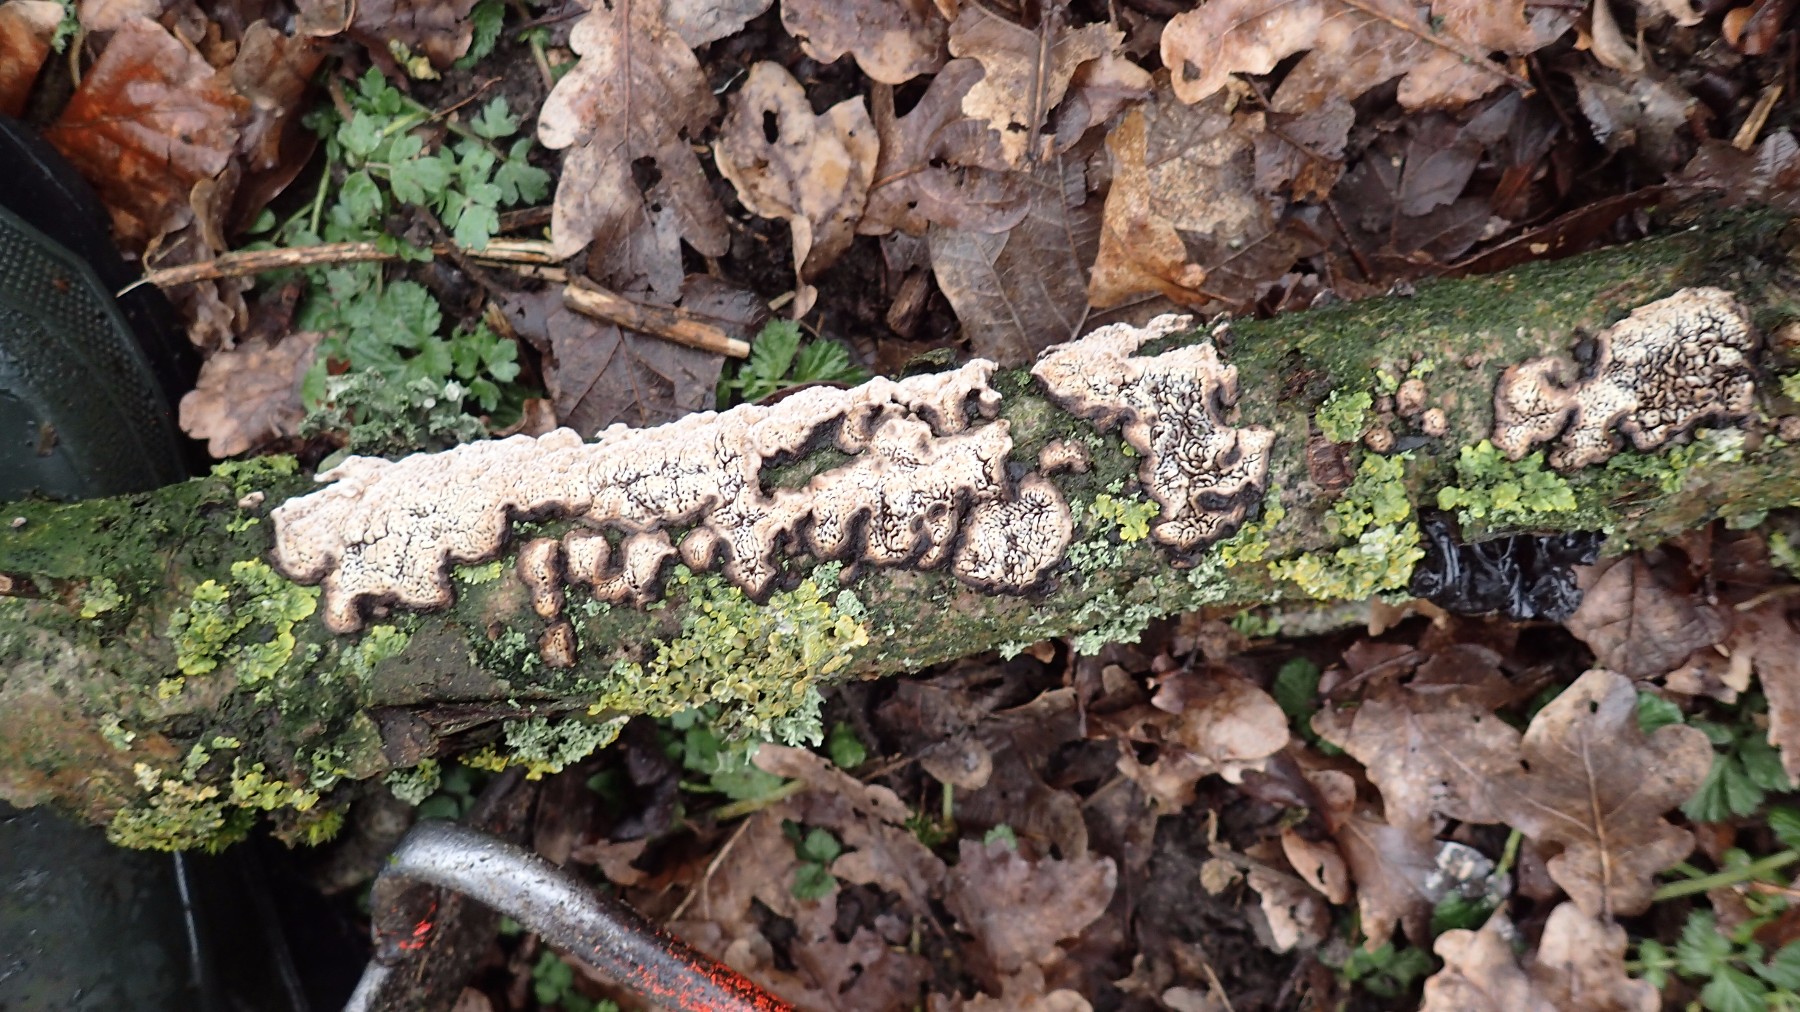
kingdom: Fungi
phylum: Basidiomycota
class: Agaricomycetes
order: Polyporales
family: Polyporaceae
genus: Podofomes
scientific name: Podofomes mollis
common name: blød begporesvamp
